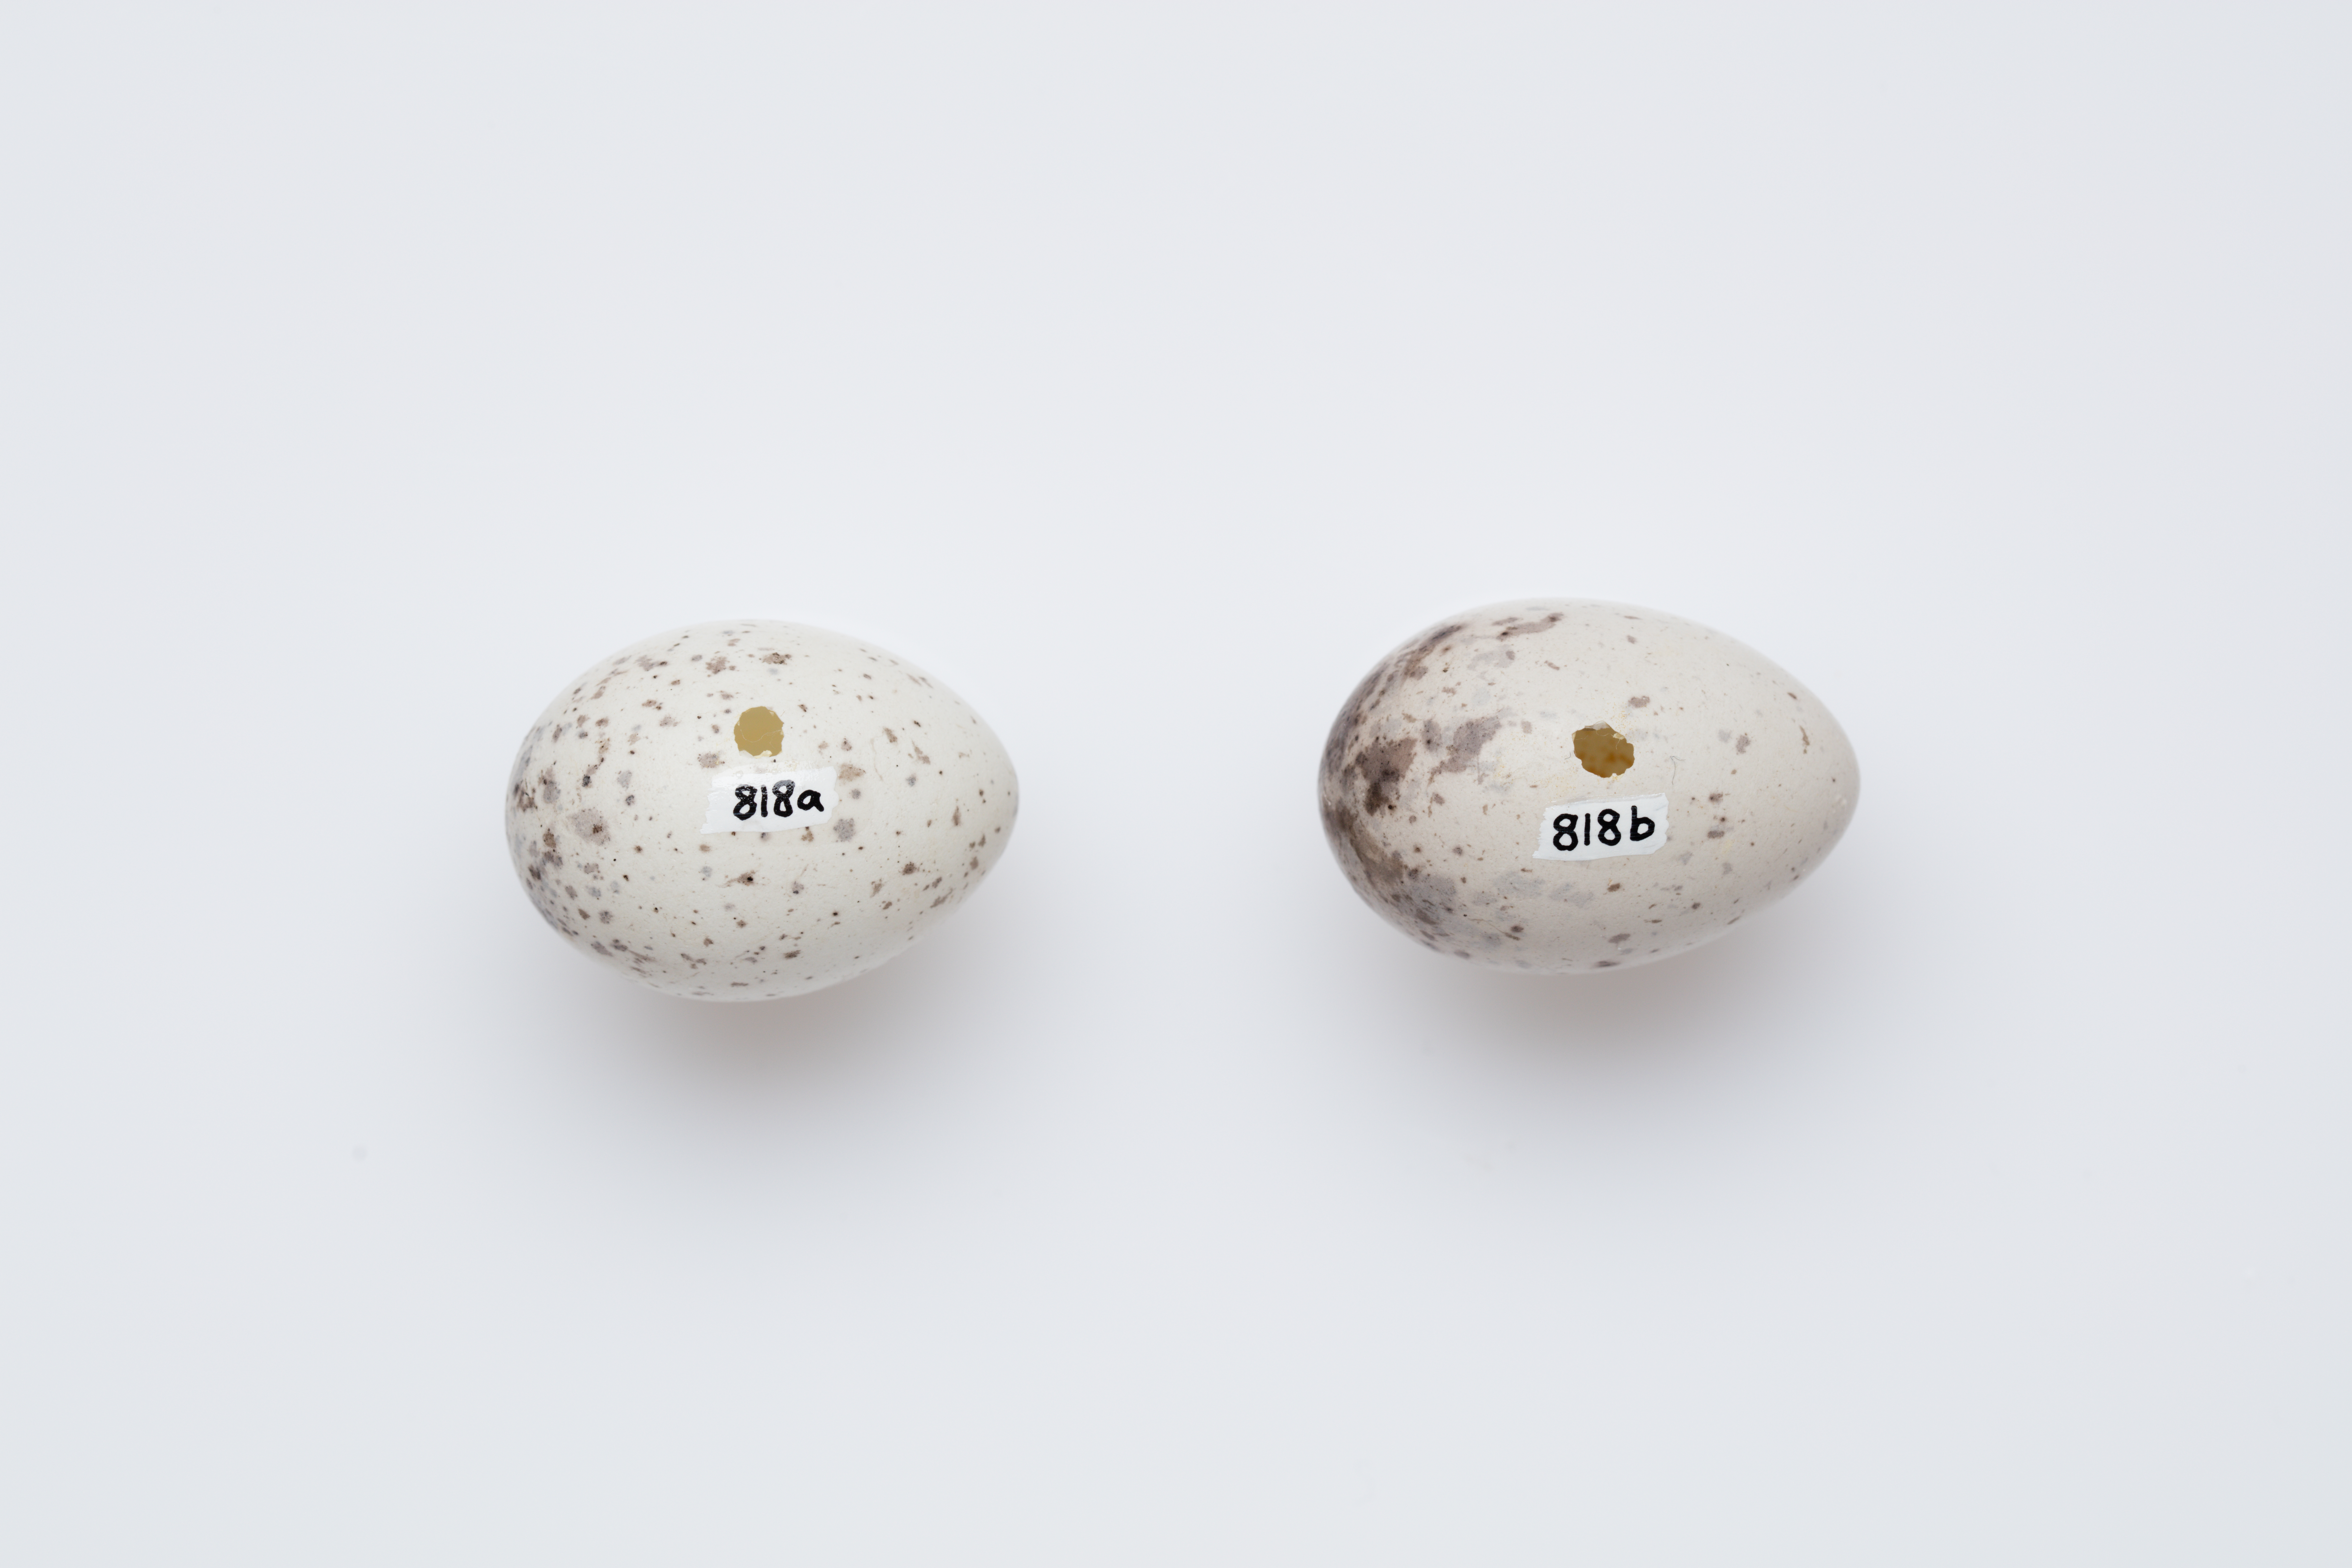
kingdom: Animalia
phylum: Chordata
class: Aves
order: Passeriformes
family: Callaeatidae
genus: Philesturnus
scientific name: Philesturnus carunculatus
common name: South island saddleback
